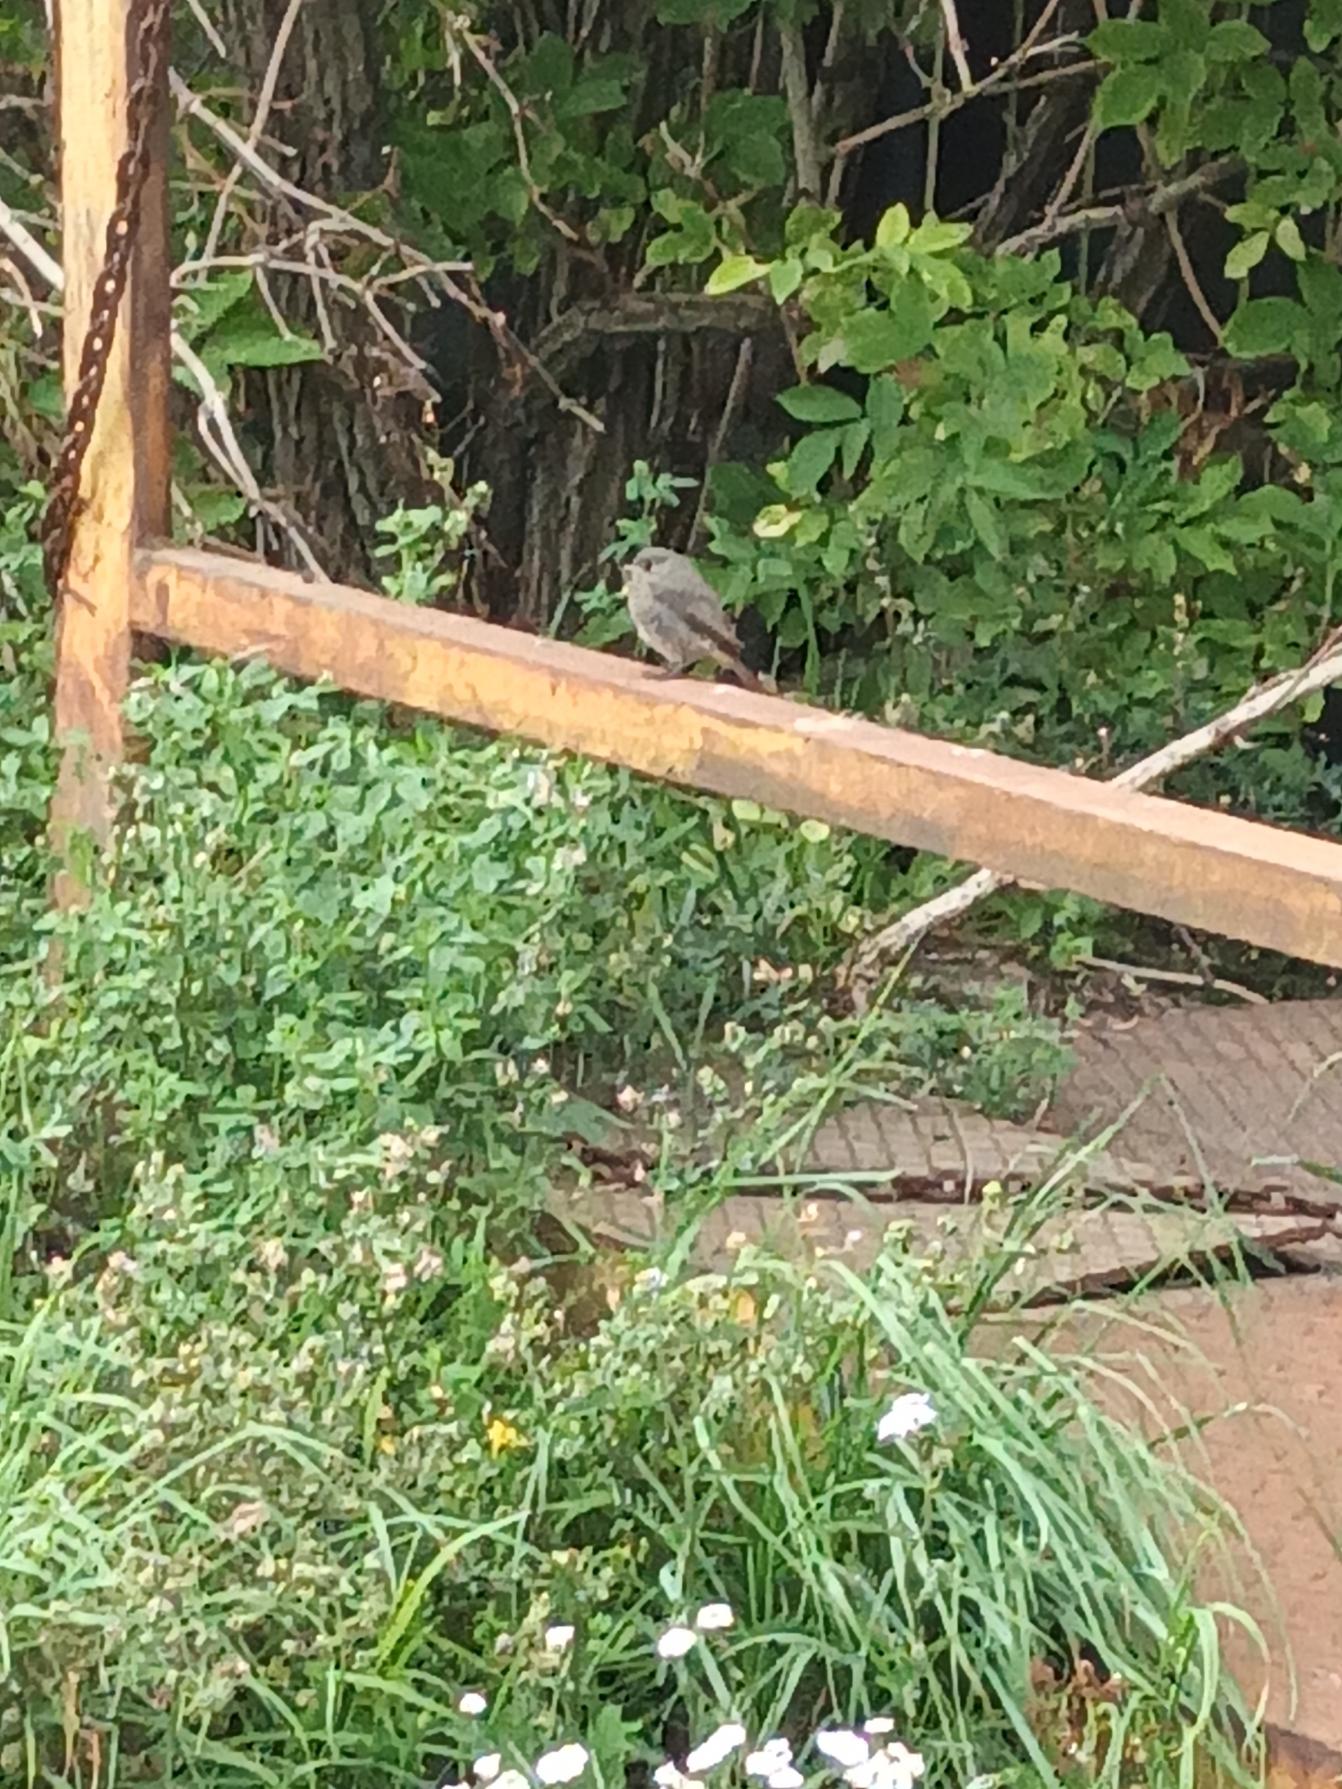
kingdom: Animalia
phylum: Chordata
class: Aves
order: Passeriformes
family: Muscicapidae
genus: Phoenicurus
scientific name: Phoenicurus ochruros
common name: Husrødstjert
